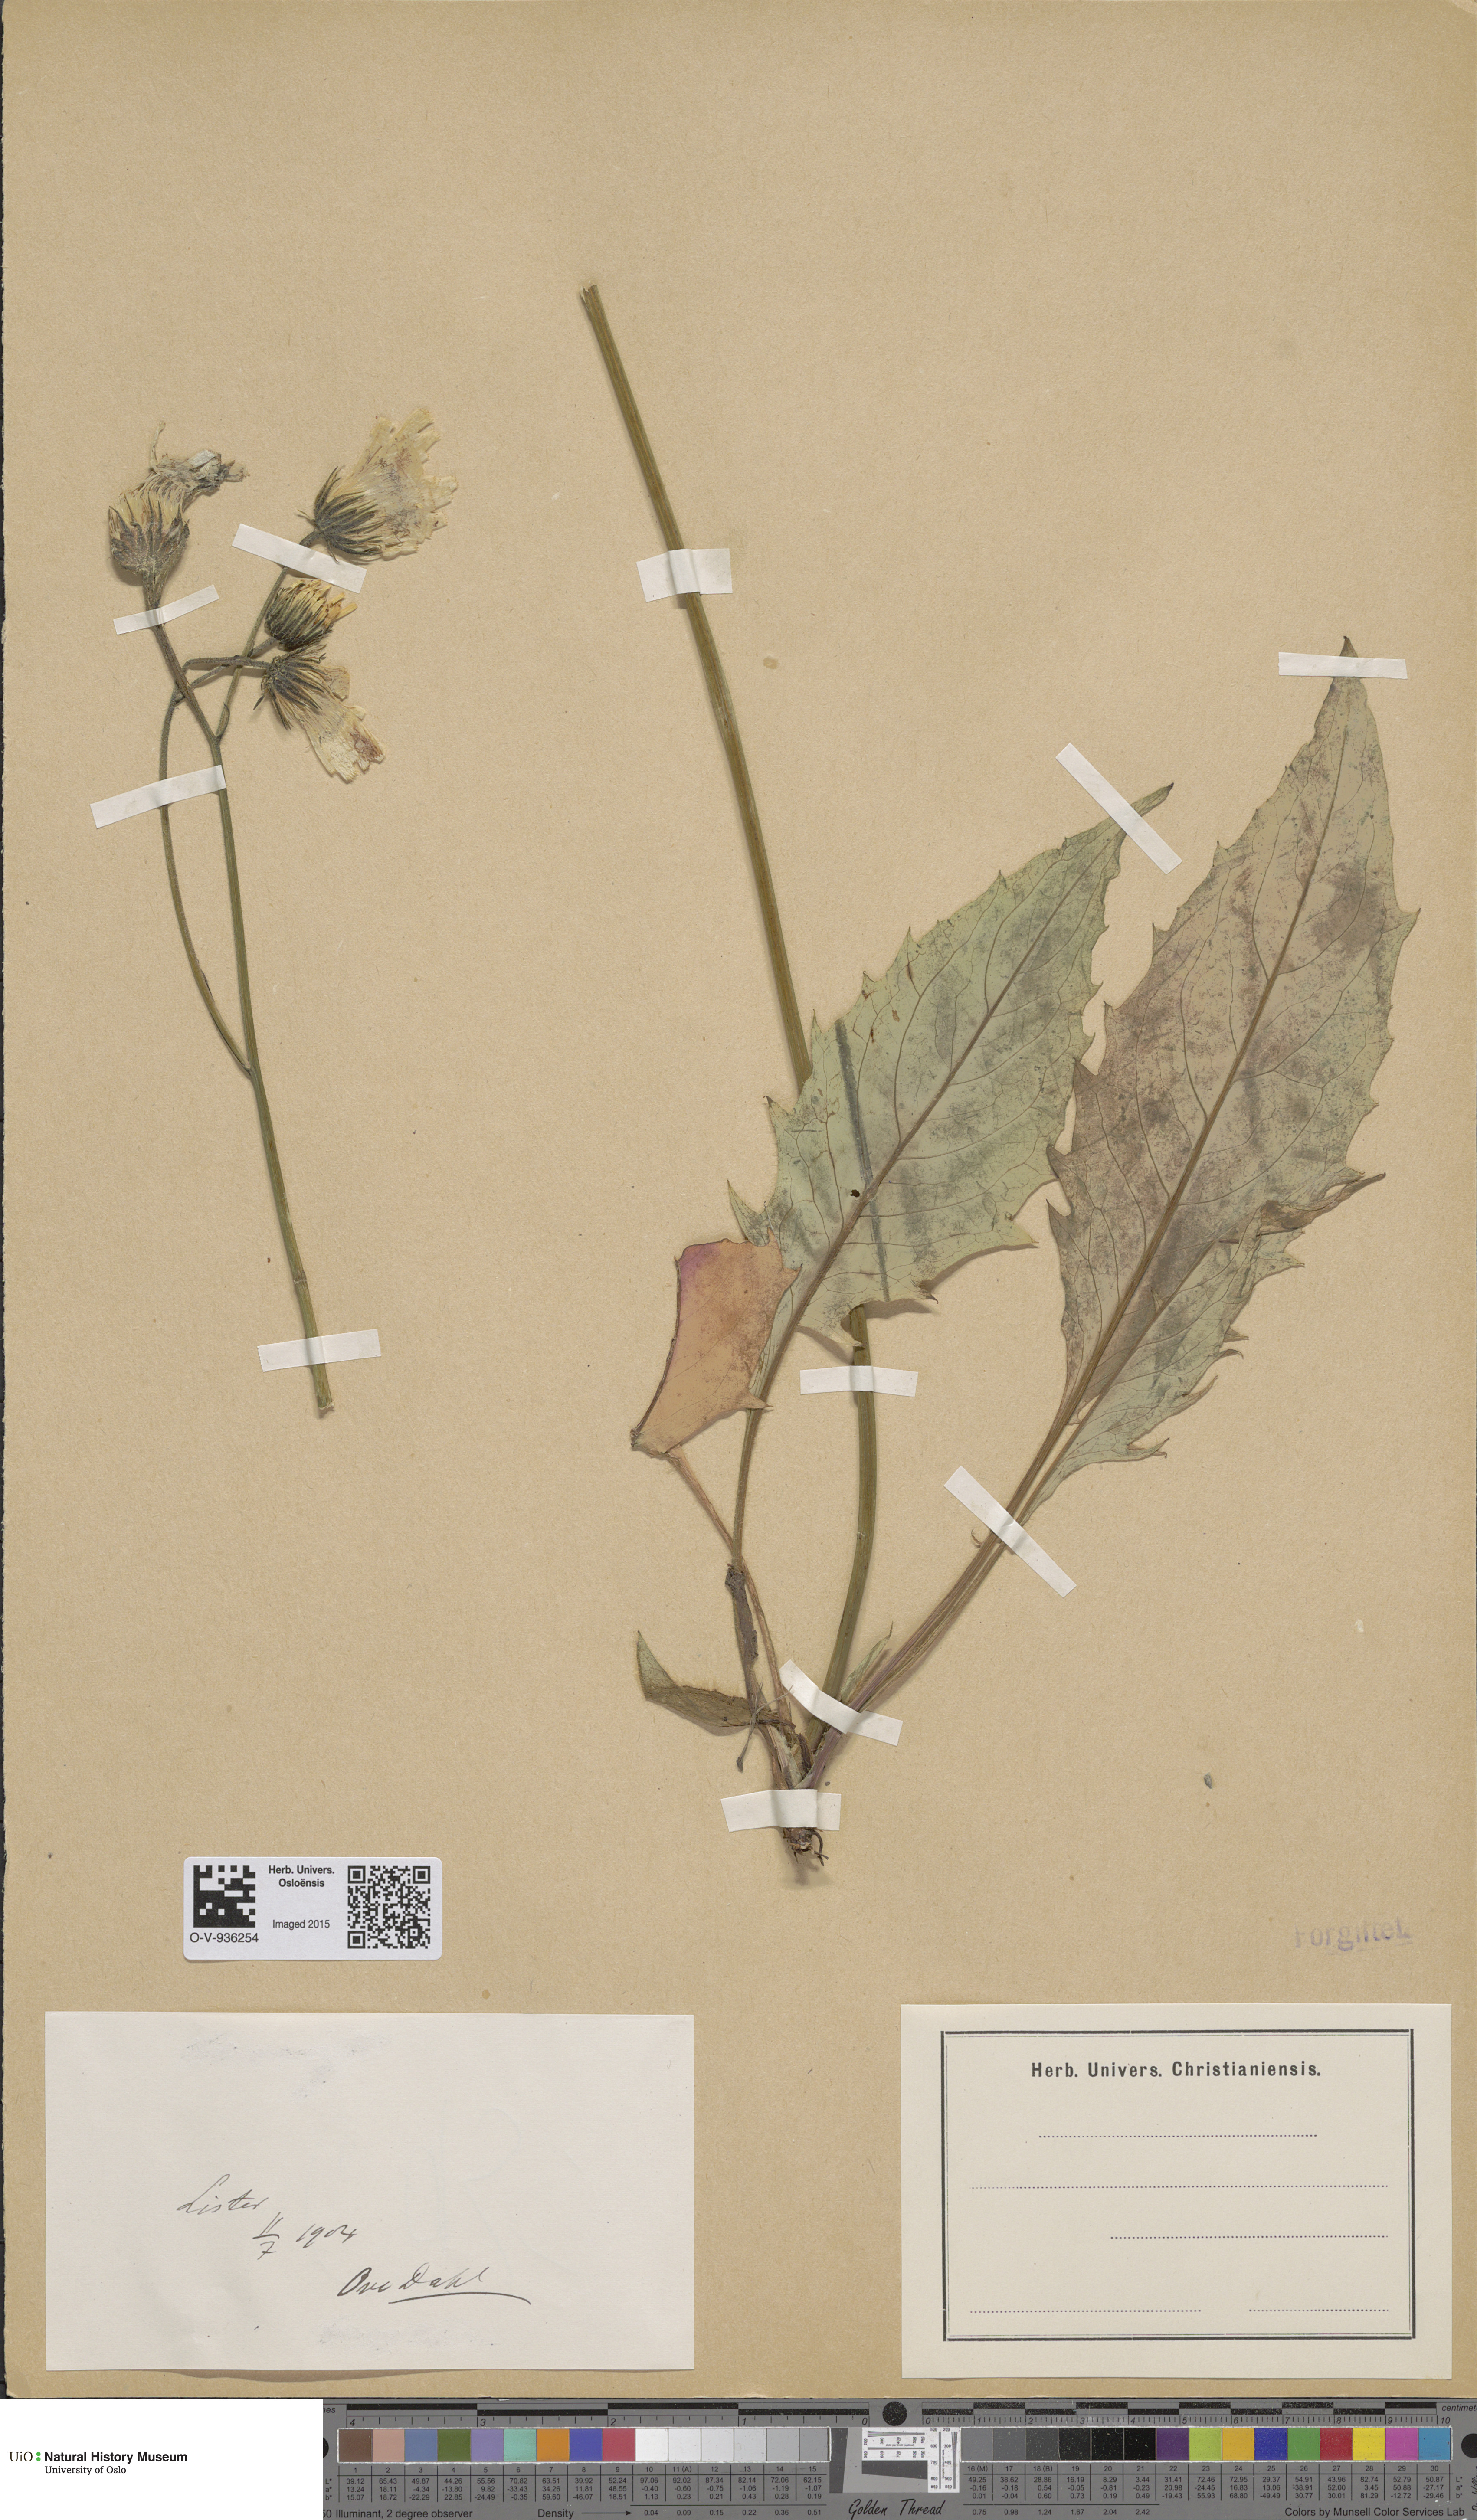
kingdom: Plantae
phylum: Tracheophyta
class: Magnoliopsida
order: Asterales
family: Asteraceae
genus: Hieracium
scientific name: Hieracium argenteum
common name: Silver hawkweed
